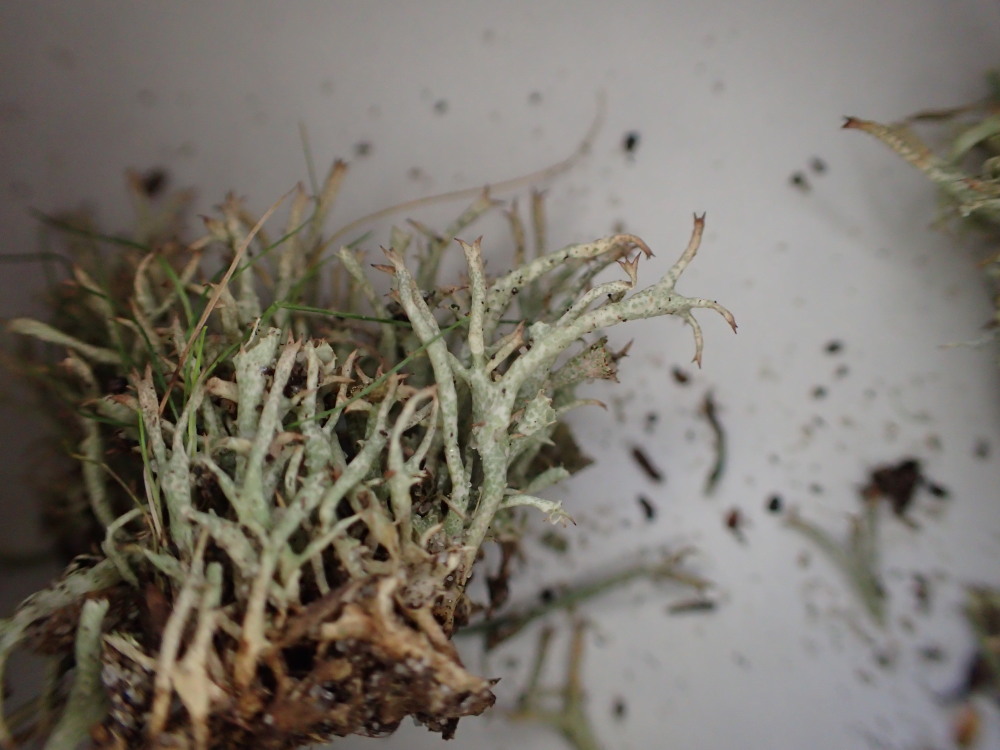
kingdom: Fungi
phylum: Ascomycota
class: Lecanoromycetes
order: Lecanorales
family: Cladoniaceae
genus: Cladonia
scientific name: Cladonia uncialis
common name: pigget bægerlav
